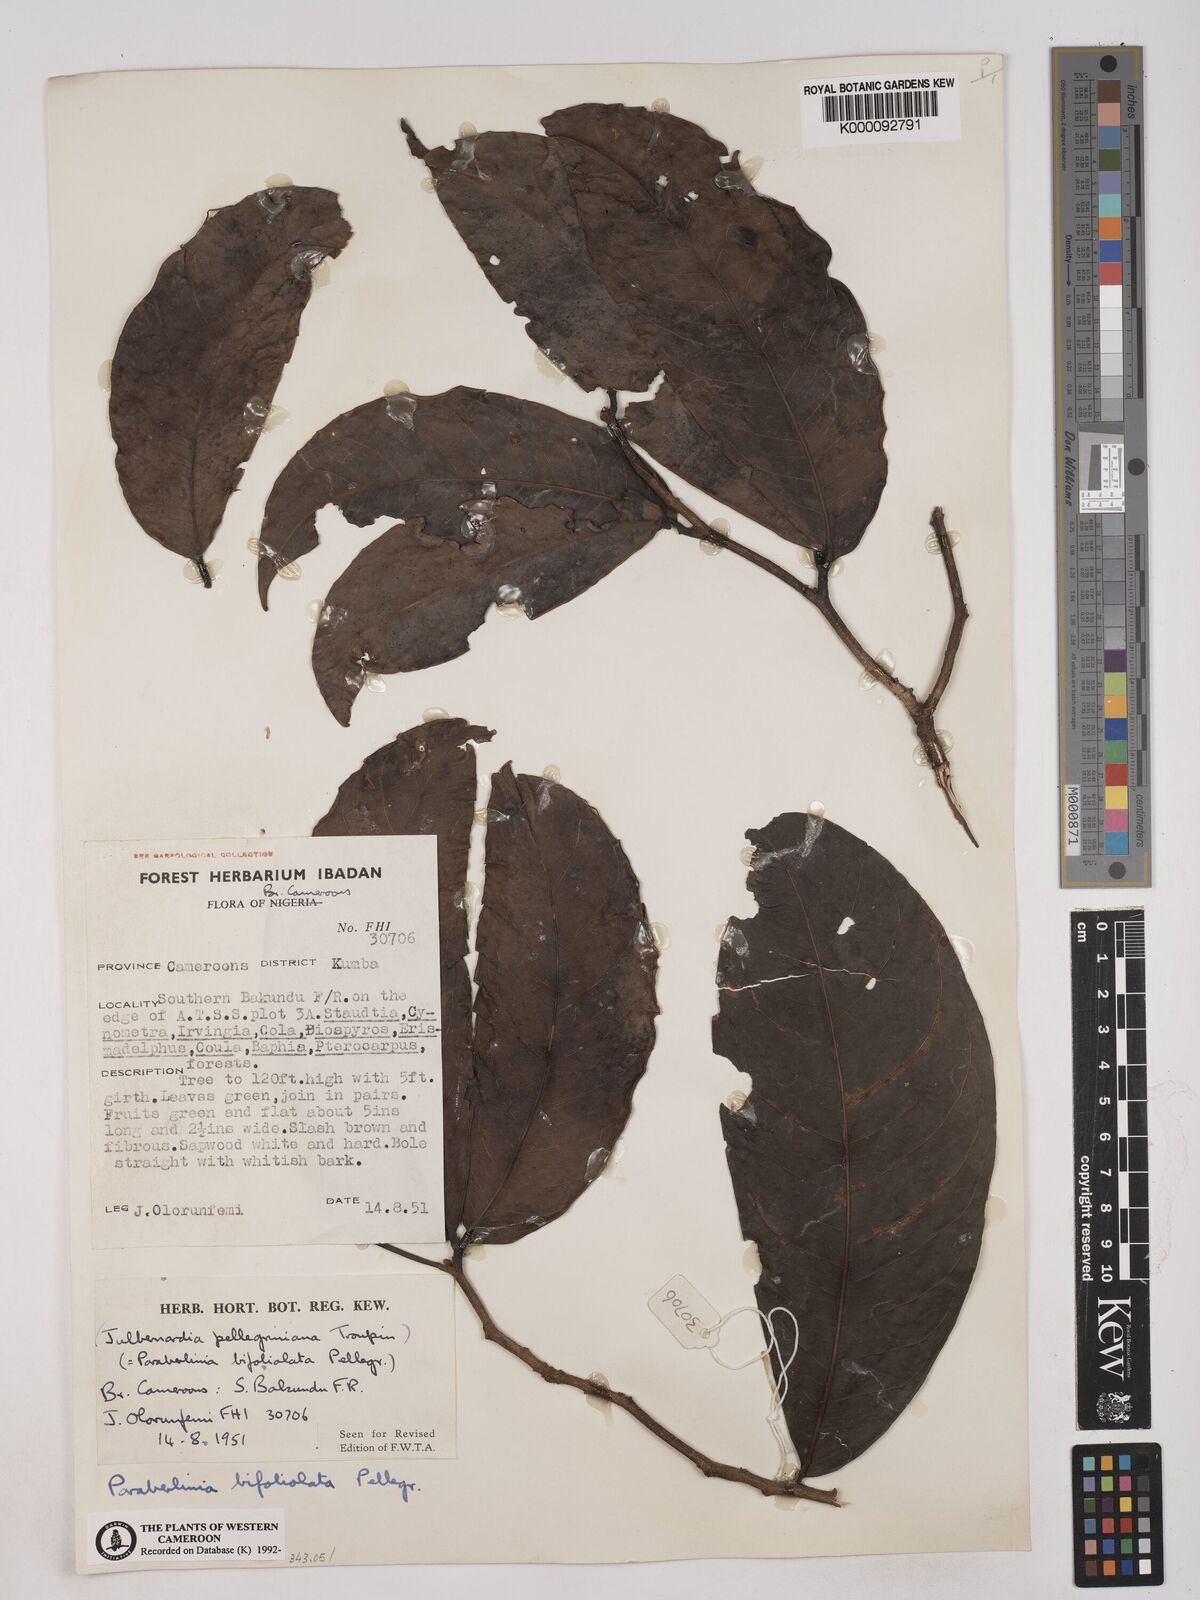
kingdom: Plantae
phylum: Tracheophyta
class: Magnoliopsida
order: Fabales
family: Fabaceae
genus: Julbernardia
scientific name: Julbernardia pellegriniana
